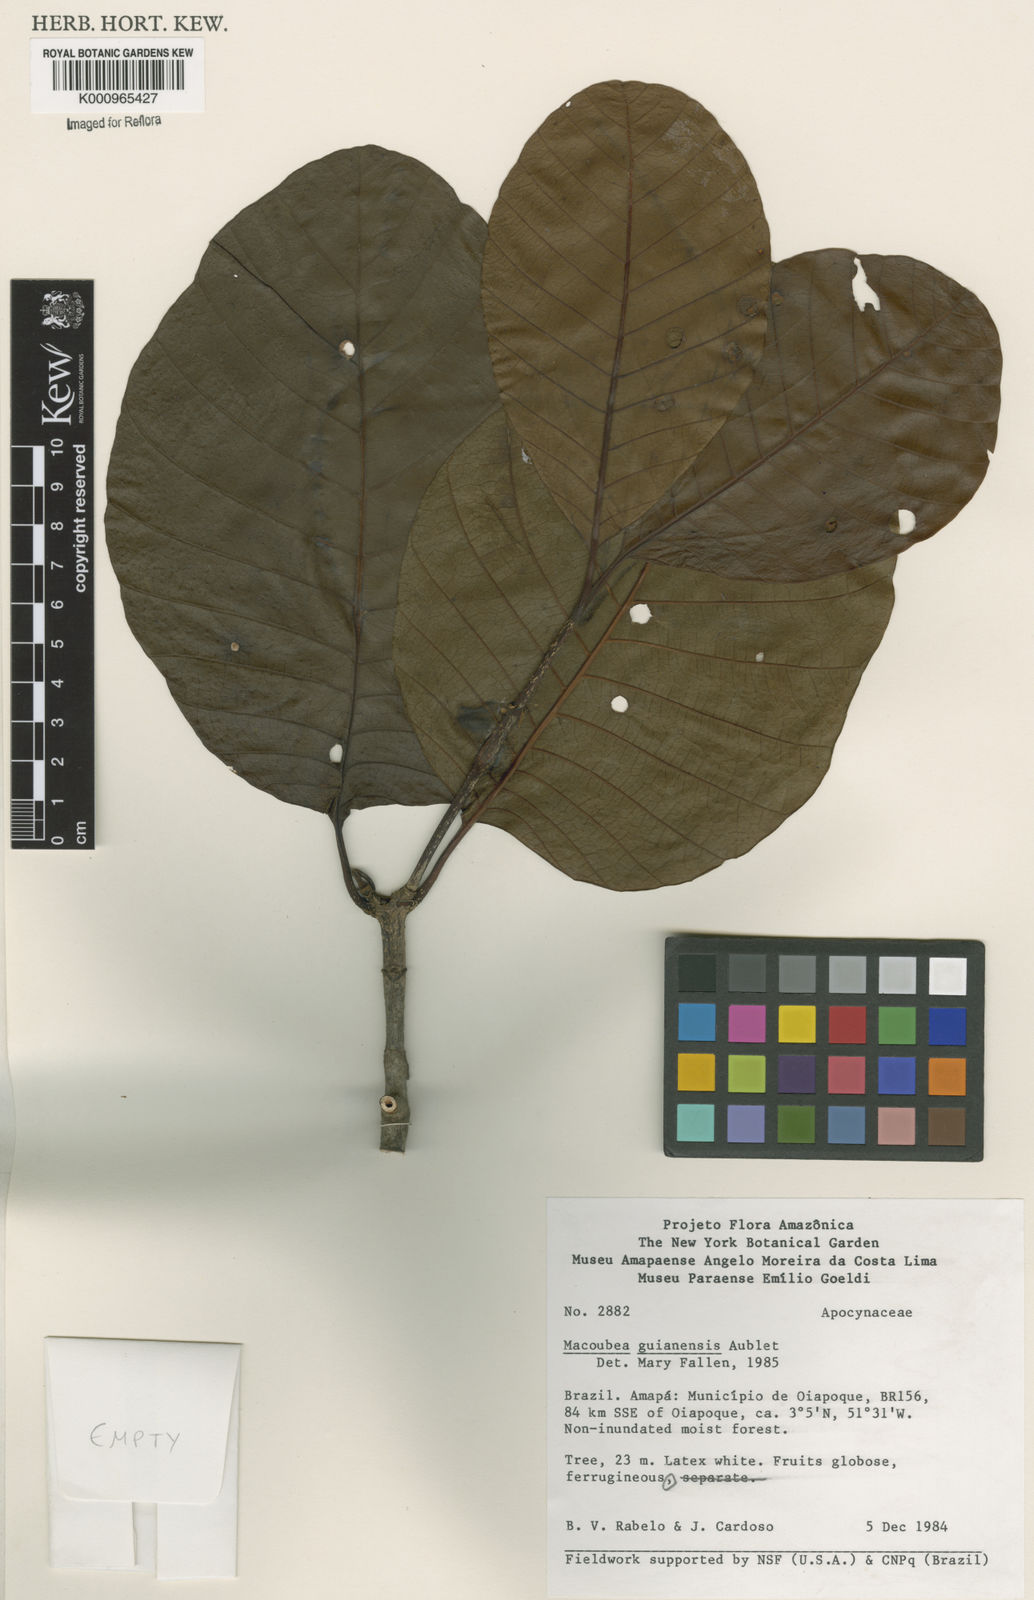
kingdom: Plantae
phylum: Tracheophyta
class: Magnoliopsida
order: Gentianales
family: Apocynaceae
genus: Macoubea
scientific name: Macoubea guianensis
